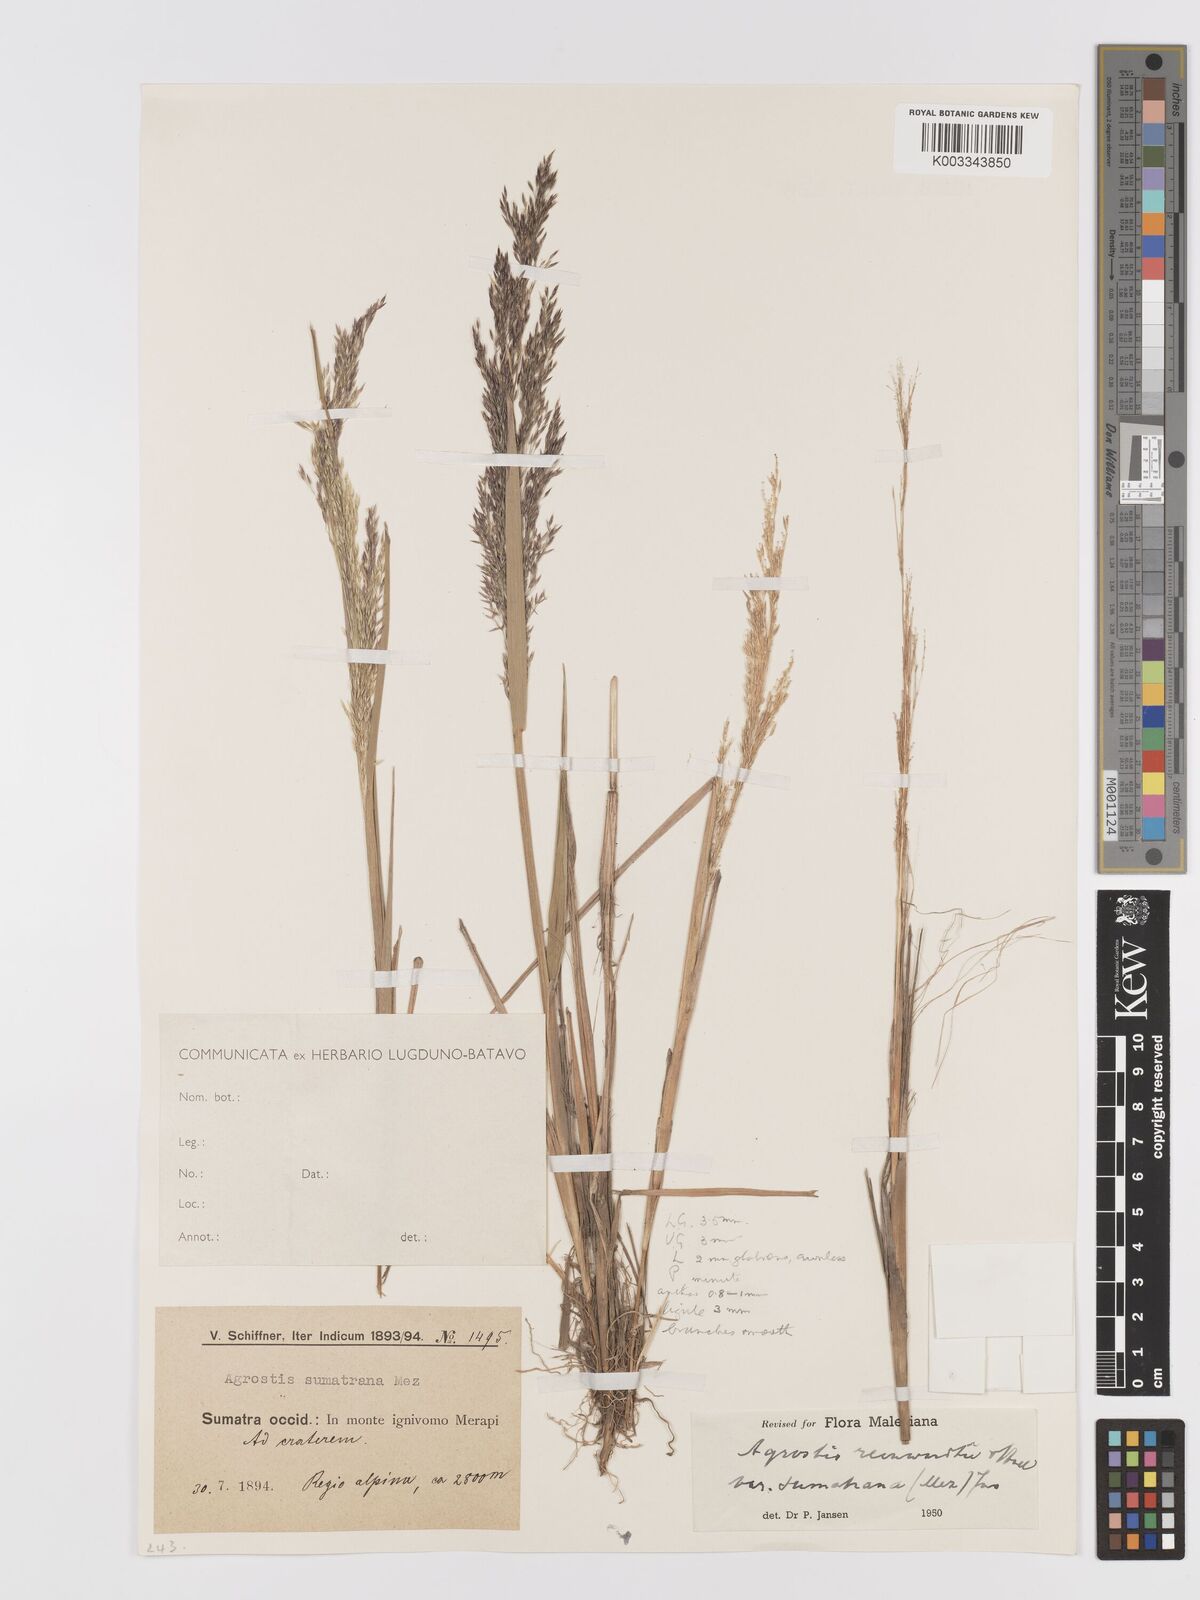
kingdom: Plantae
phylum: Tracheophyta
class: Liliopsida
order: Poales
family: Poaceae
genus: Agrostis
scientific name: Agrostis infirma
